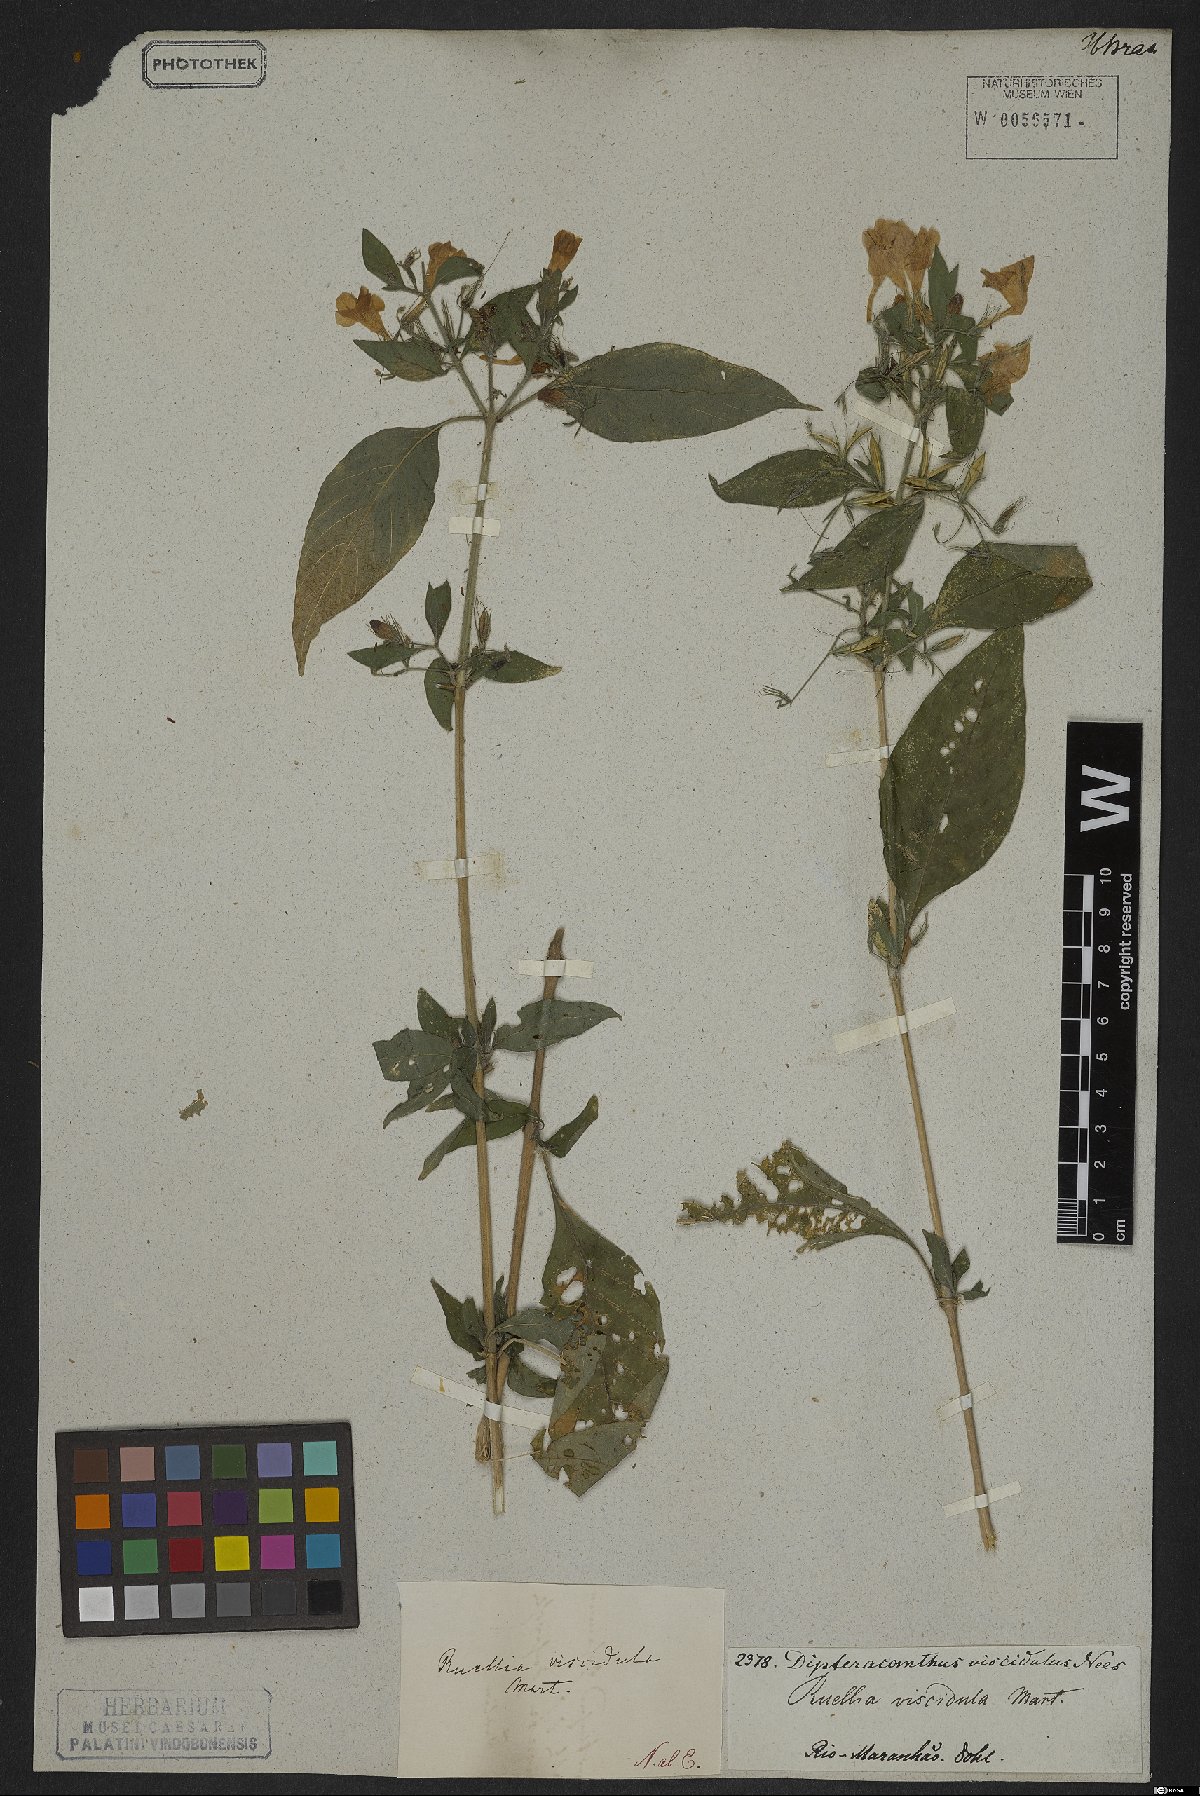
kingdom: Plantae
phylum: Tracheophyta
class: Magnoliopsida
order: Lamiales
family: Acanthaceae
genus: Ruellia
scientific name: Ruellia viscidula
